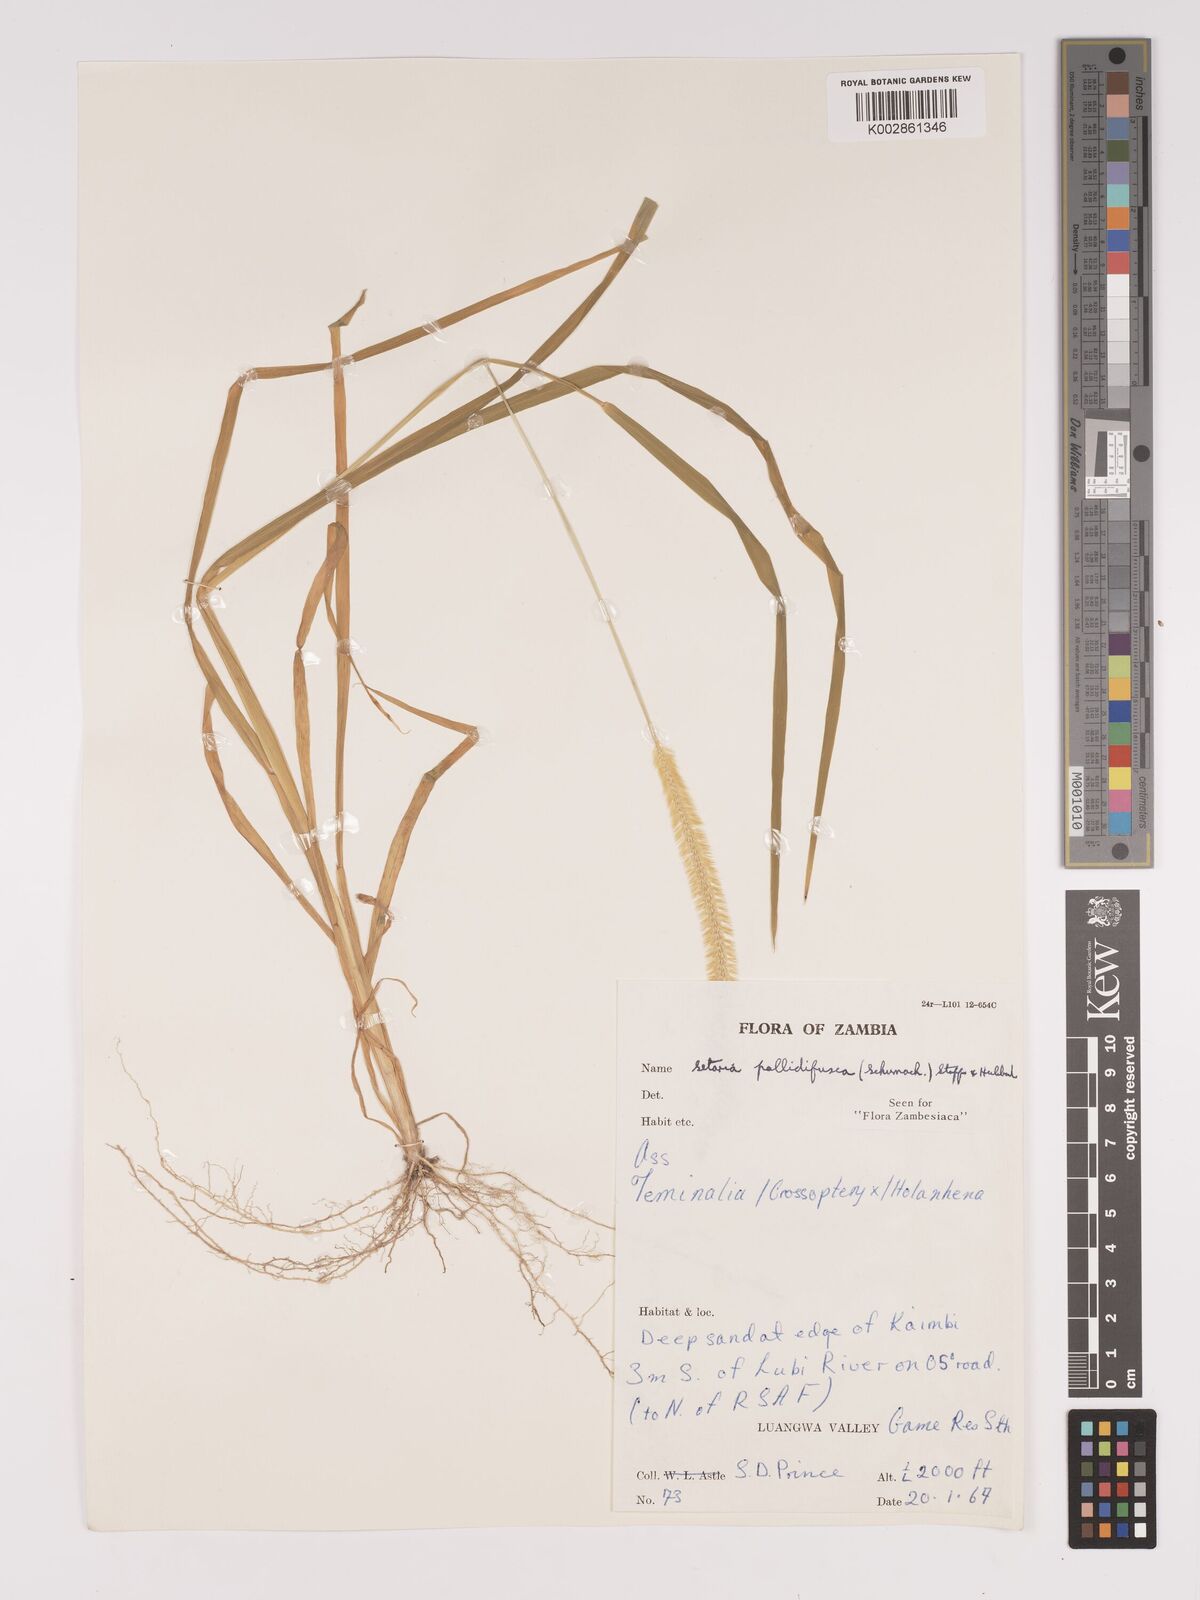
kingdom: Plantae
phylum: Tracheophyta
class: Liliopsida
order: Poales
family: Poaceae
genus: Setaria
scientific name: Setaria pumila
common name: Yellow bristle-grass
